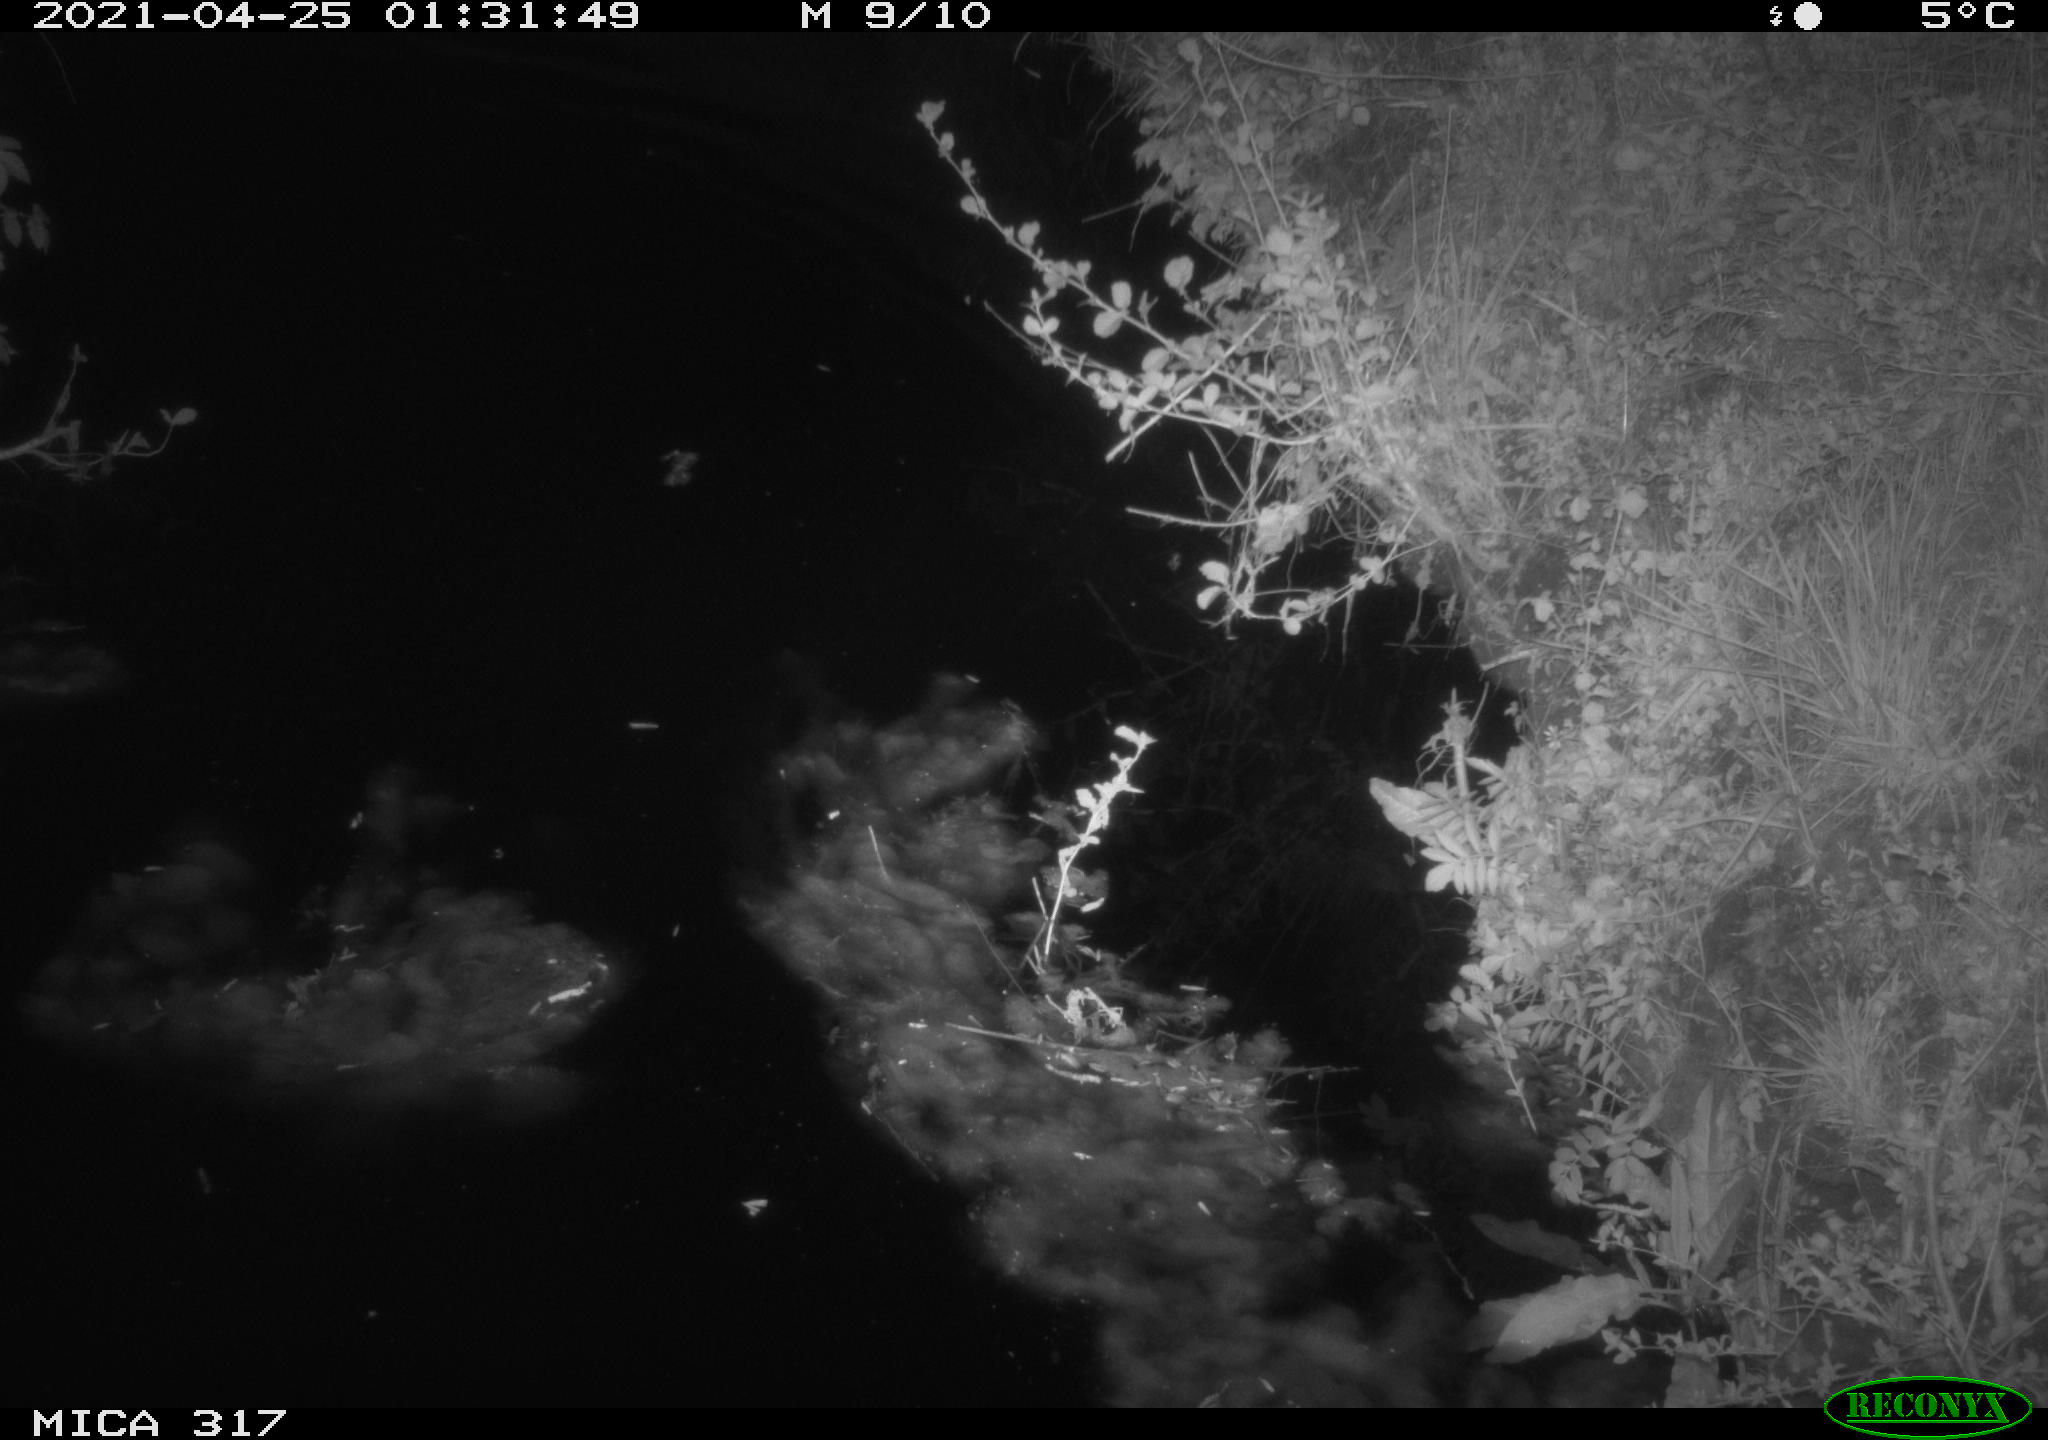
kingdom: Animalia
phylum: Chordata
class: Aves
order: Anseriformes
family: Anatidae
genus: Anas
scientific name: Anas
